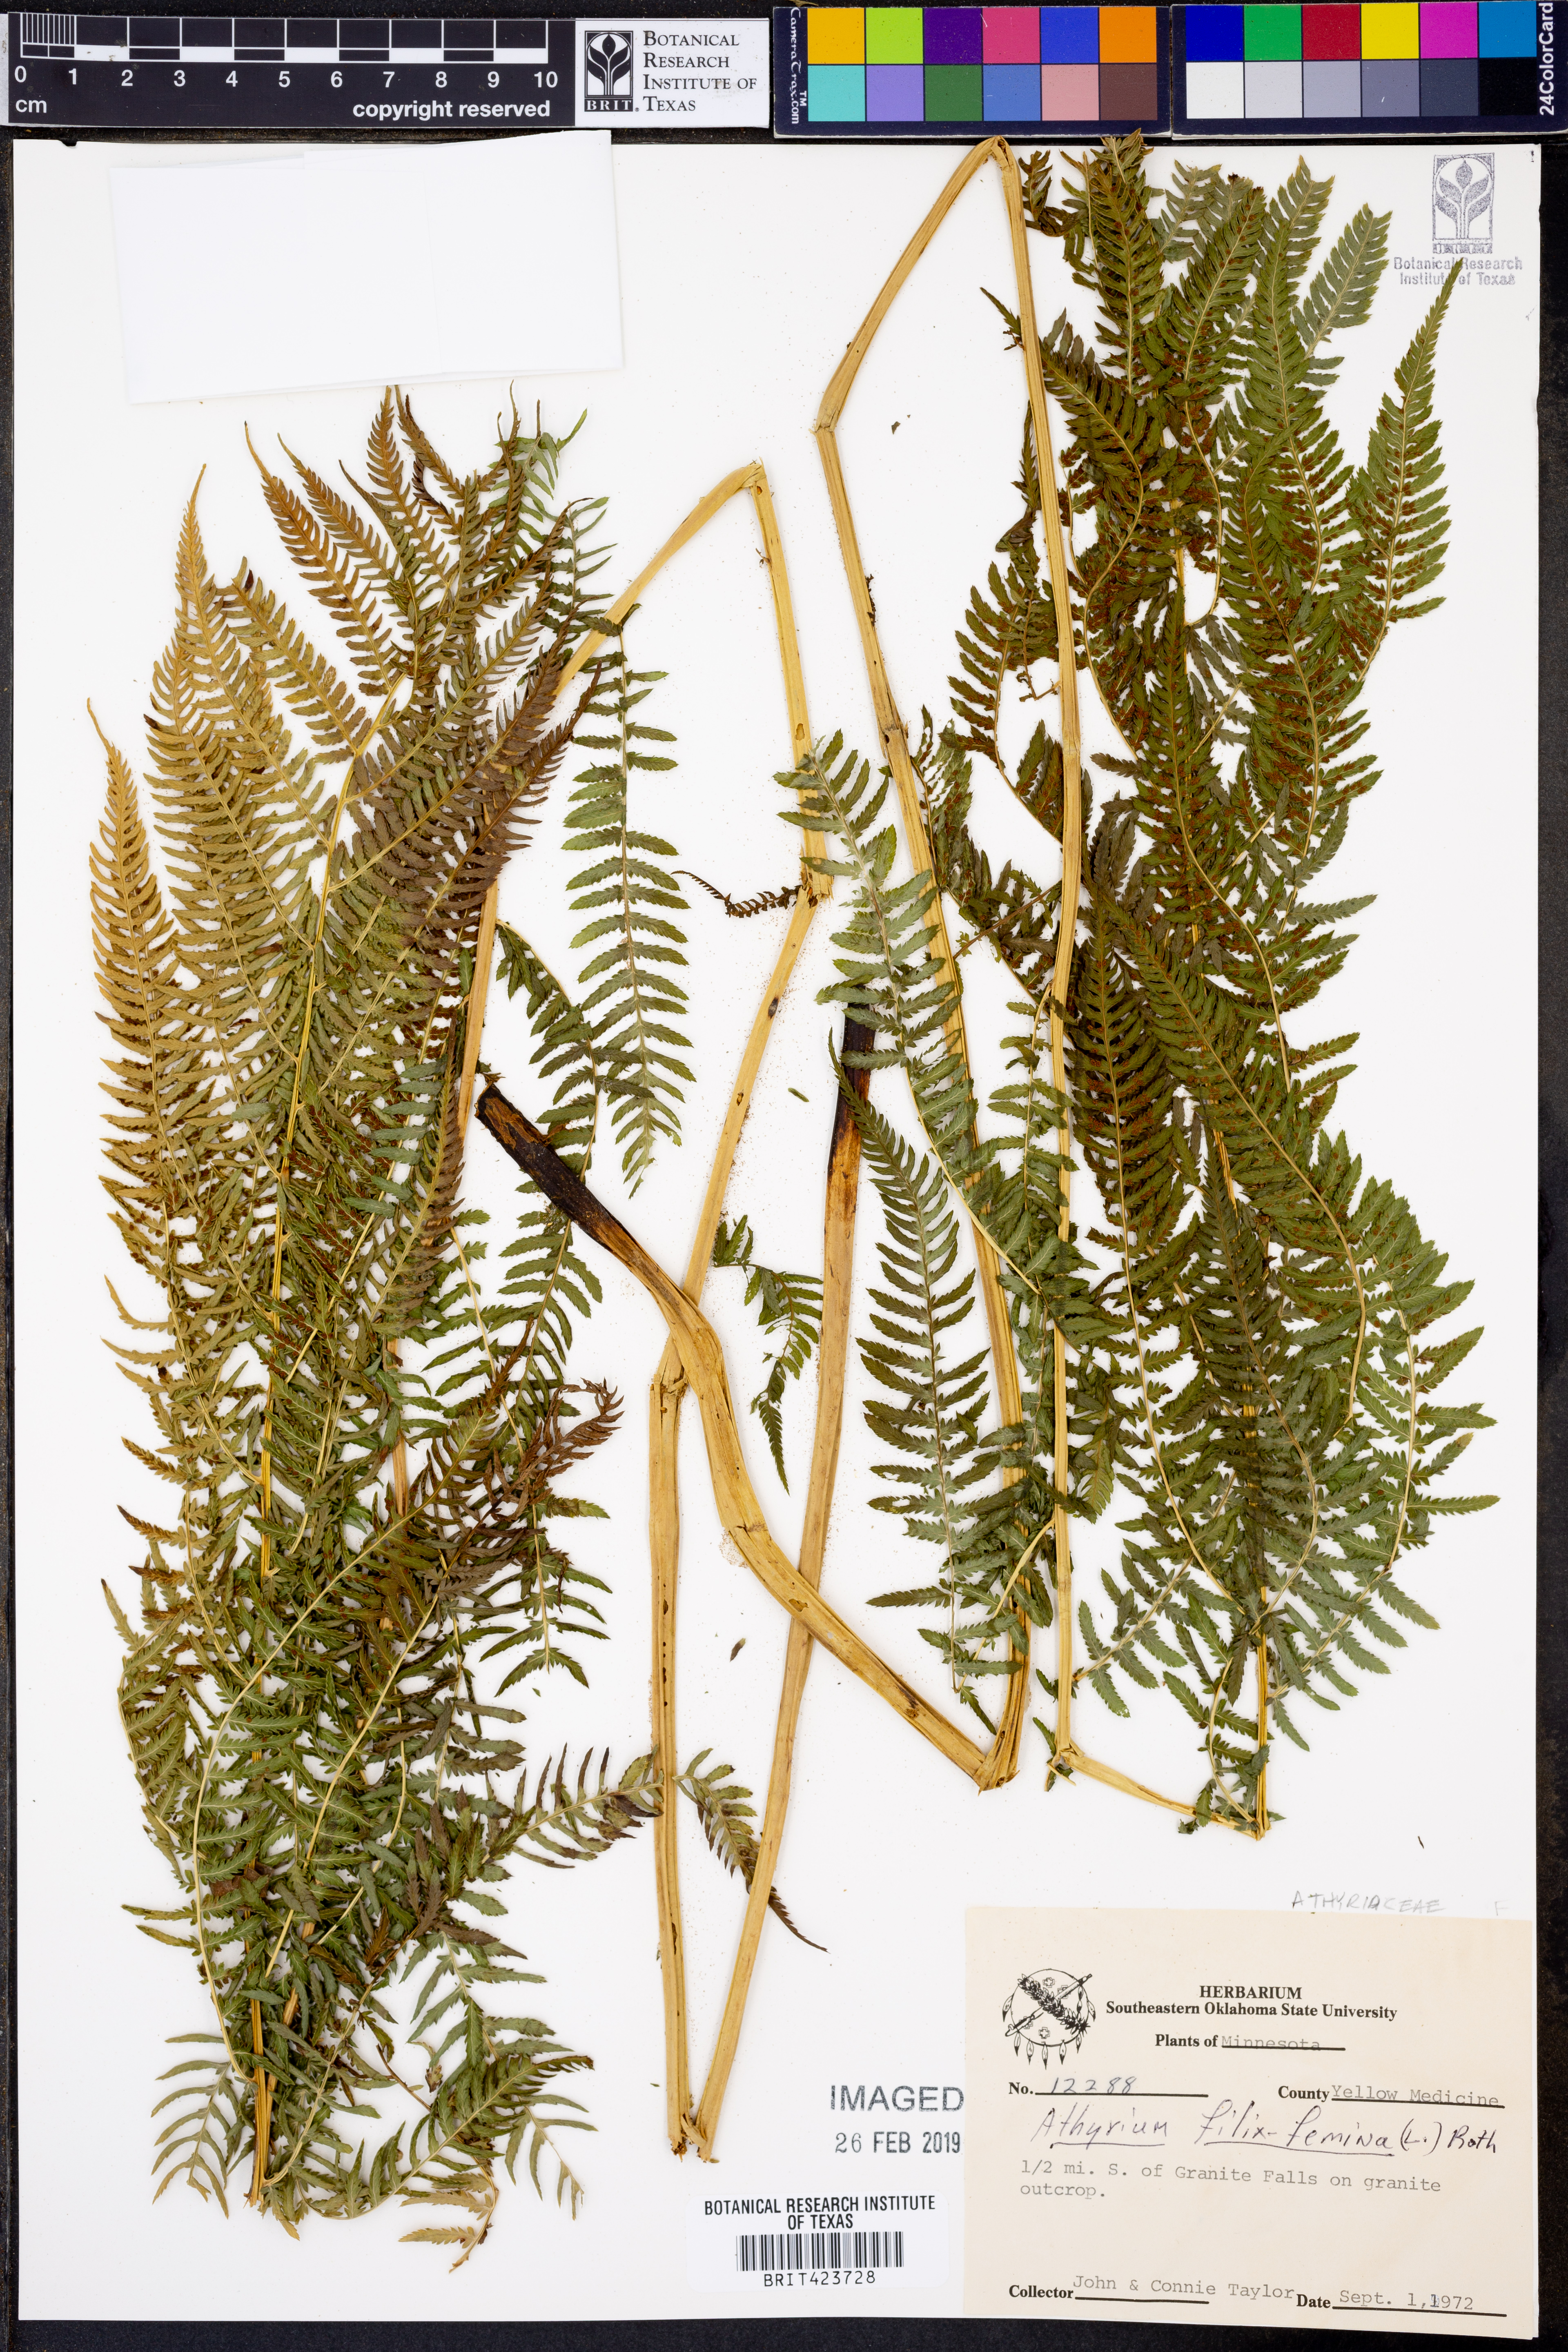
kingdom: Plantae
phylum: Tracheophyta
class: Polypodiopsida
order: Polypodiales
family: Athyriaceae
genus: Athyrium
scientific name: Athyrium filix-femina
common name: Lady fern
